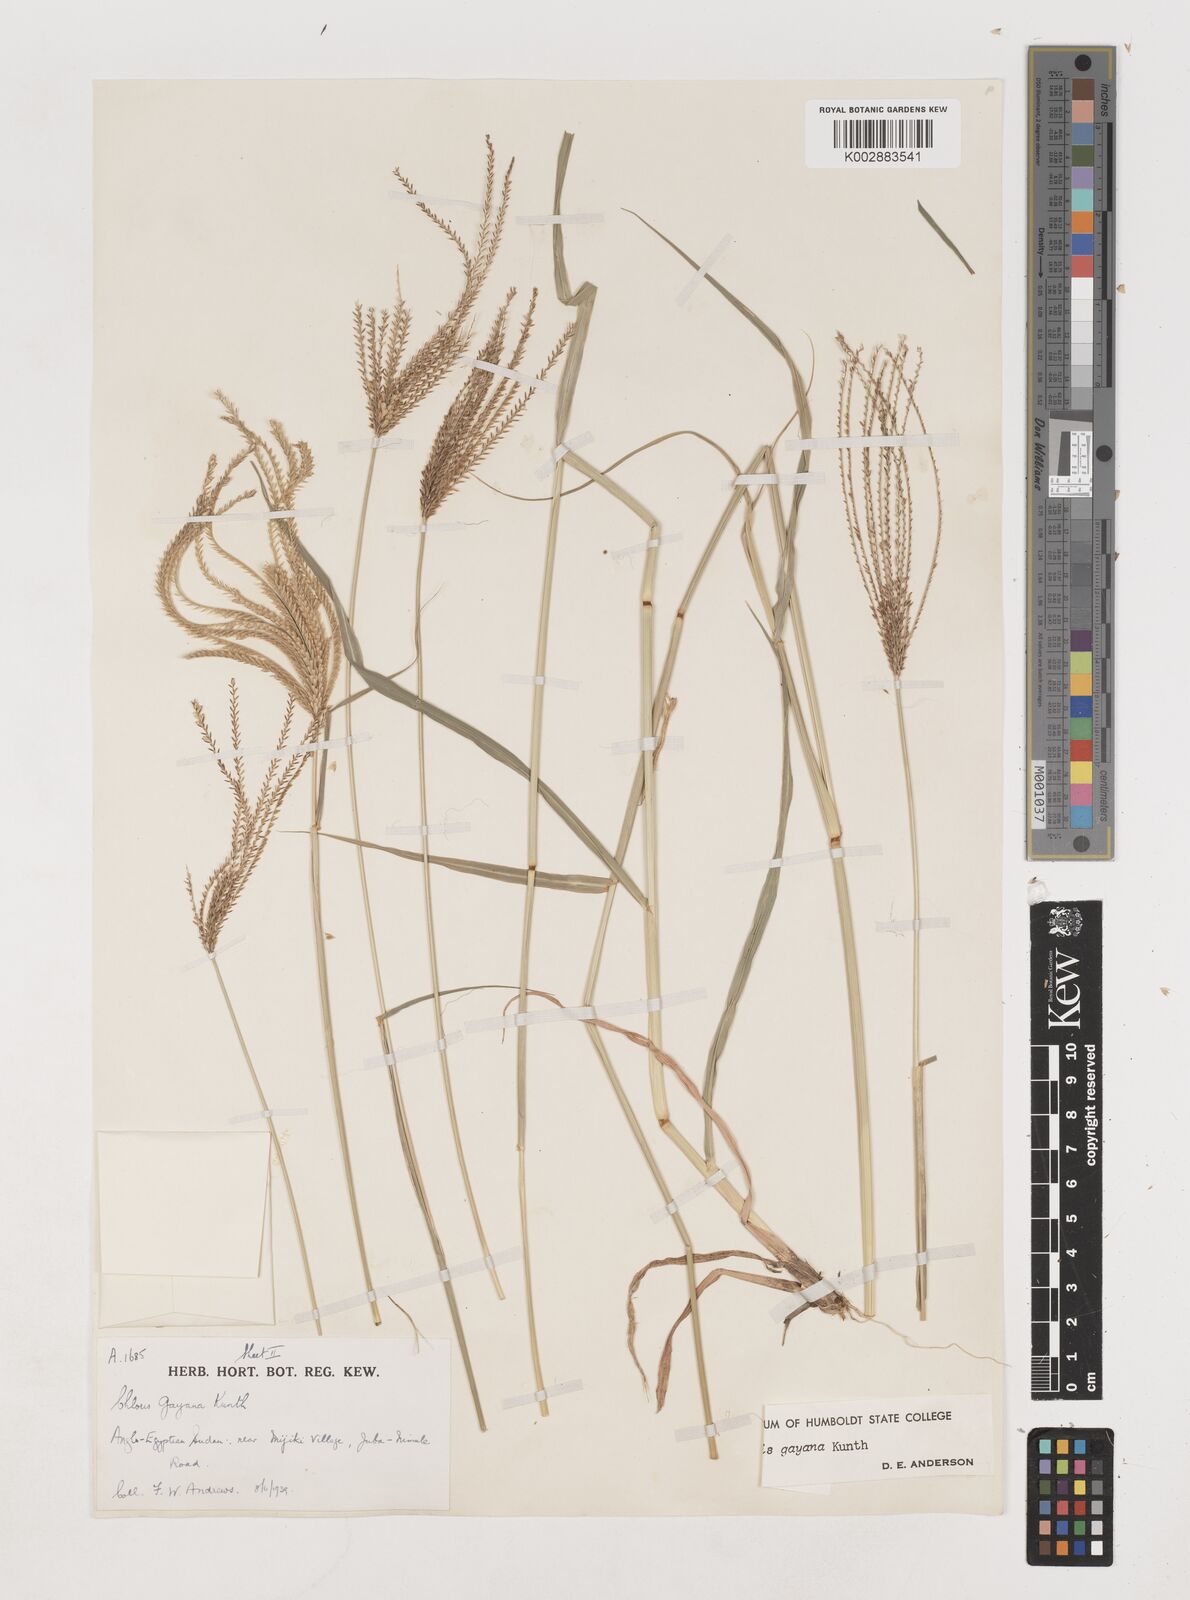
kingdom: Plantae
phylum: Tracheophyta
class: Liliopsida
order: Poales
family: Poaceae
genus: Chloris
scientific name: Chloris gayana
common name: Rhodes grass
